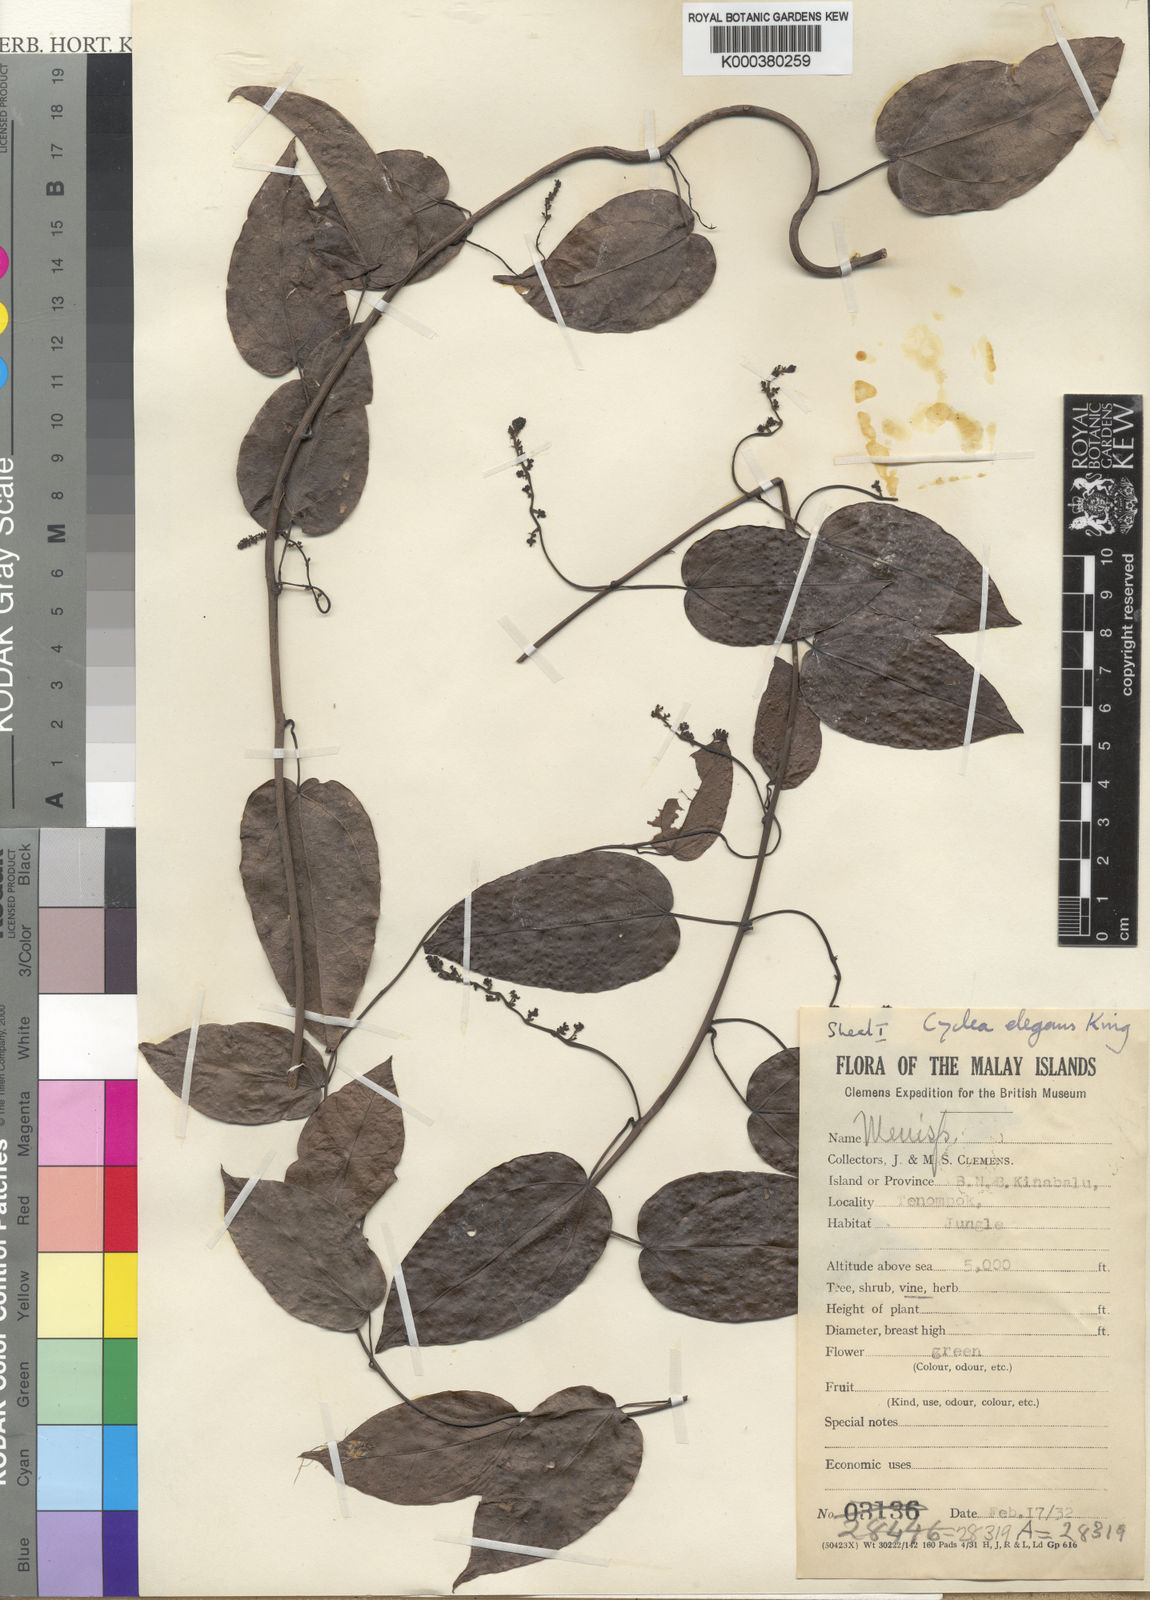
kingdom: Plantae
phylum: Tracheophyta
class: Magnoliopsida
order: Ranunculales
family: Menispermaceae
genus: Cyclea
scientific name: Cyclea elegans
